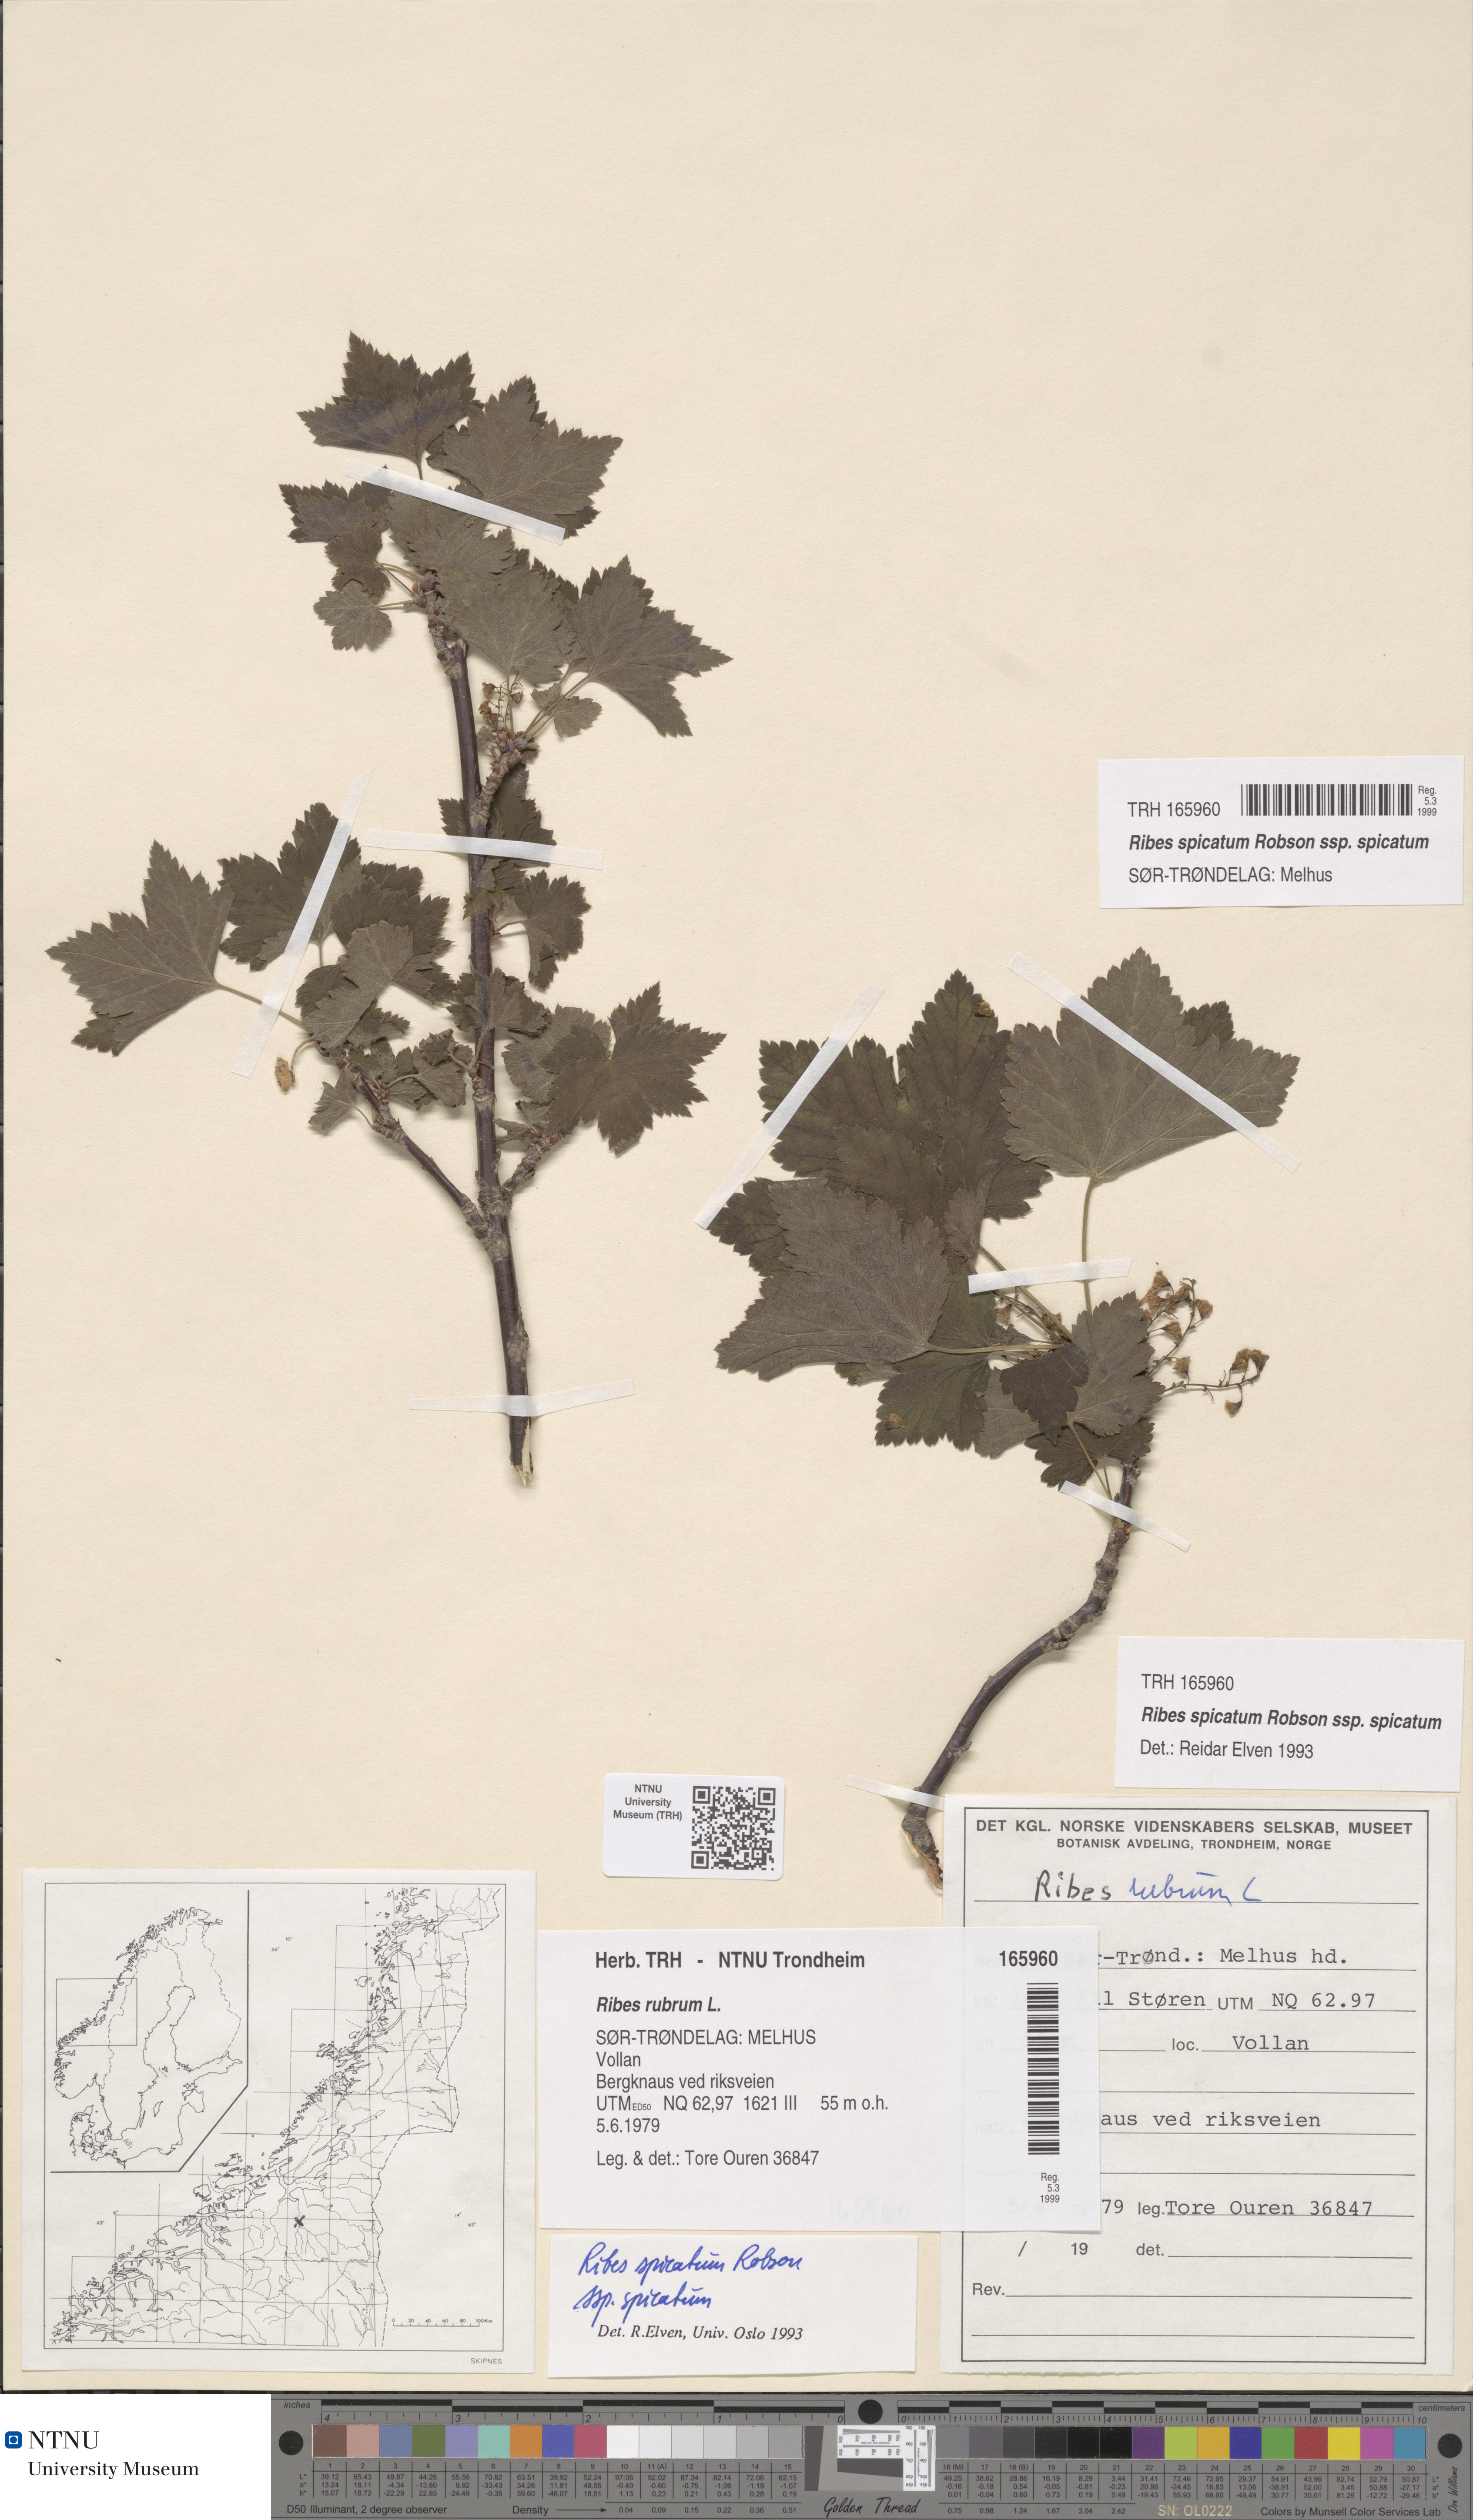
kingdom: Plantae
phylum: Tracheophyta
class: Magnoliopsida
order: Saxifragales
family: Grossulariaceae
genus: Ribes
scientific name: Ribes spicatum
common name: Downy currant
